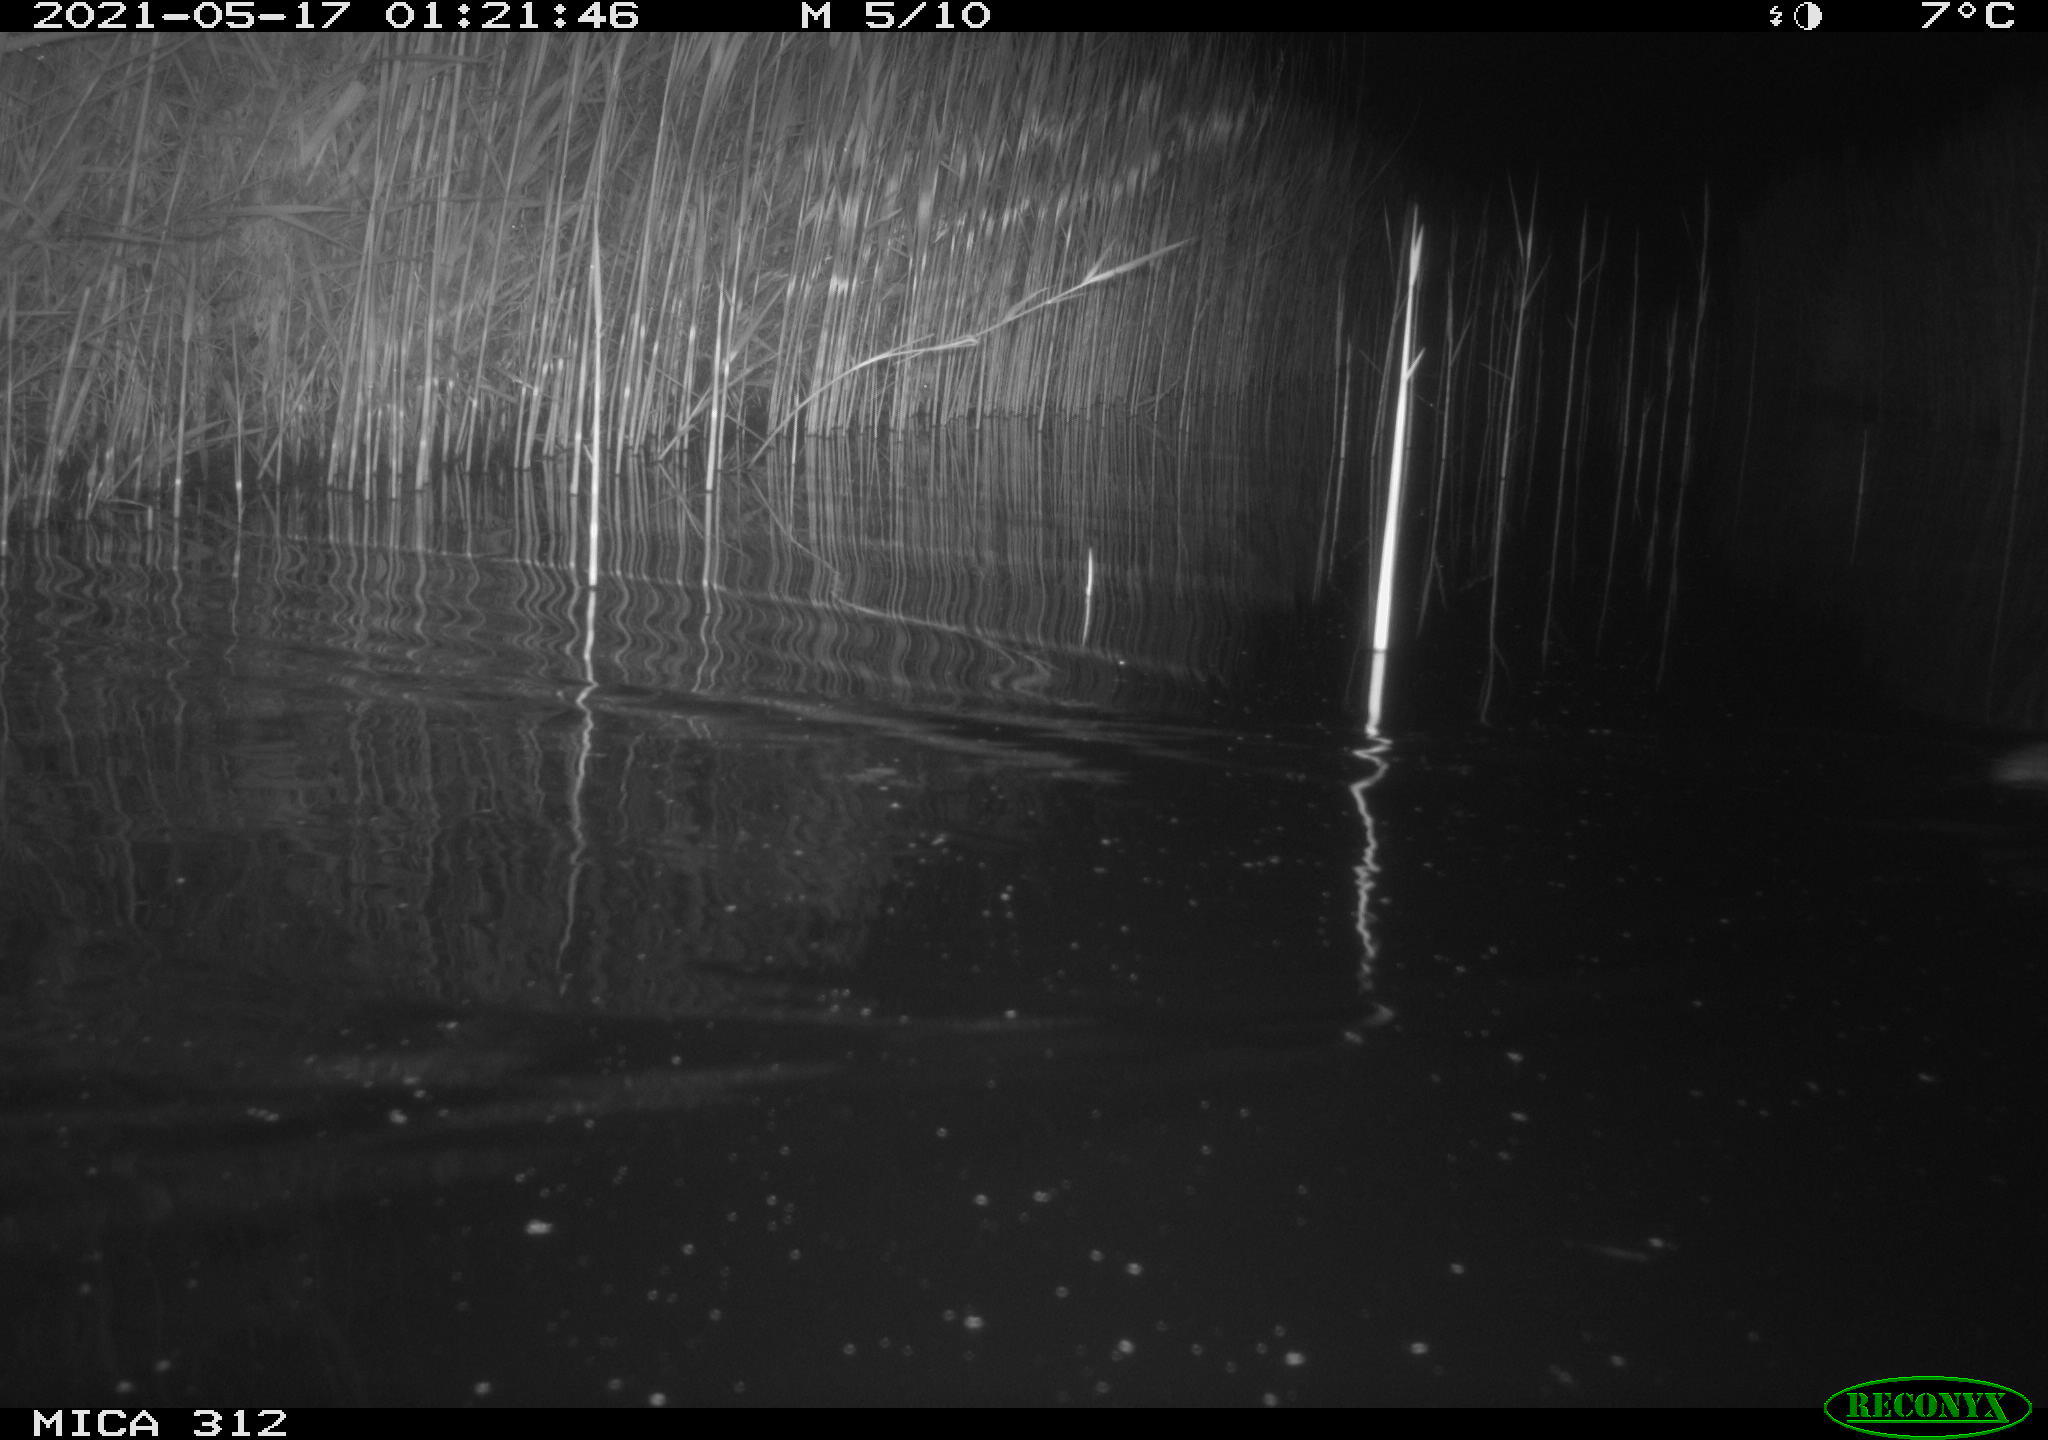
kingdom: Animalia
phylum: Chordata
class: Mammalia
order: Rodentia
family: Muridae
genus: Rattus
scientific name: Rattus norvegicus
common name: Brown rat
